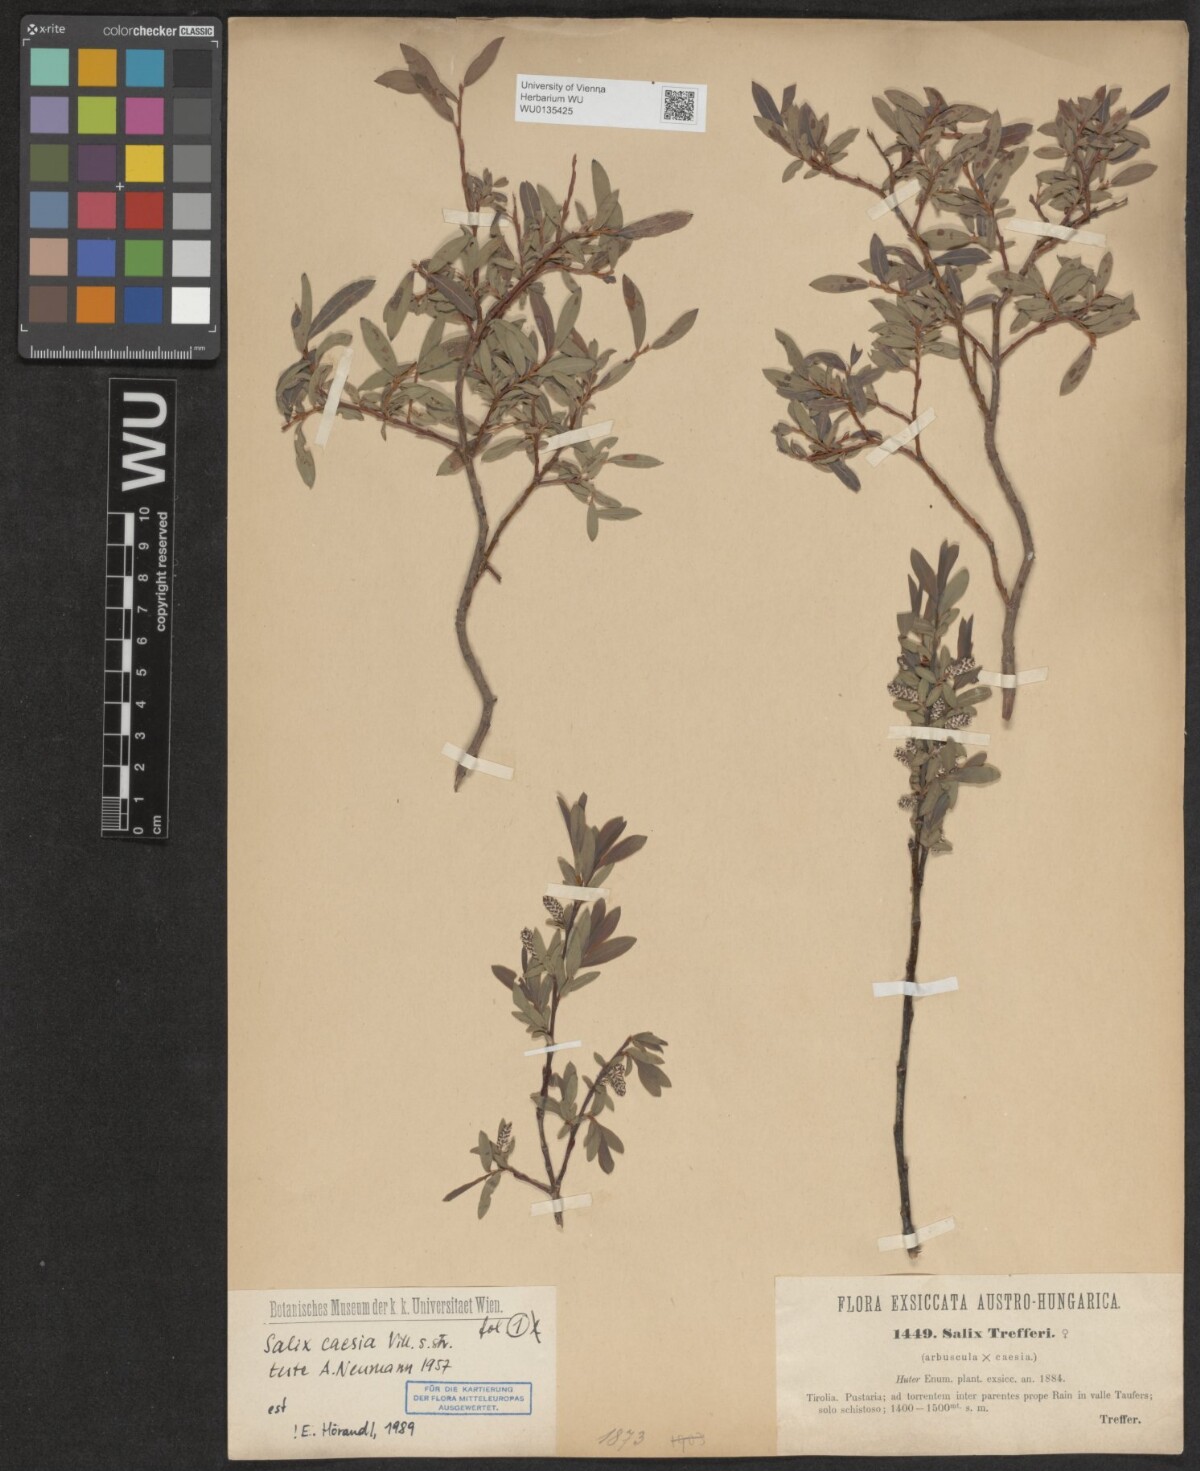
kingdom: Plantae
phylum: Tracheophyta
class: Magnoliopsida
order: Malpighiales
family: Salicaceae
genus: Salix
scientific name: Salix caesia
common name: Blue willow
